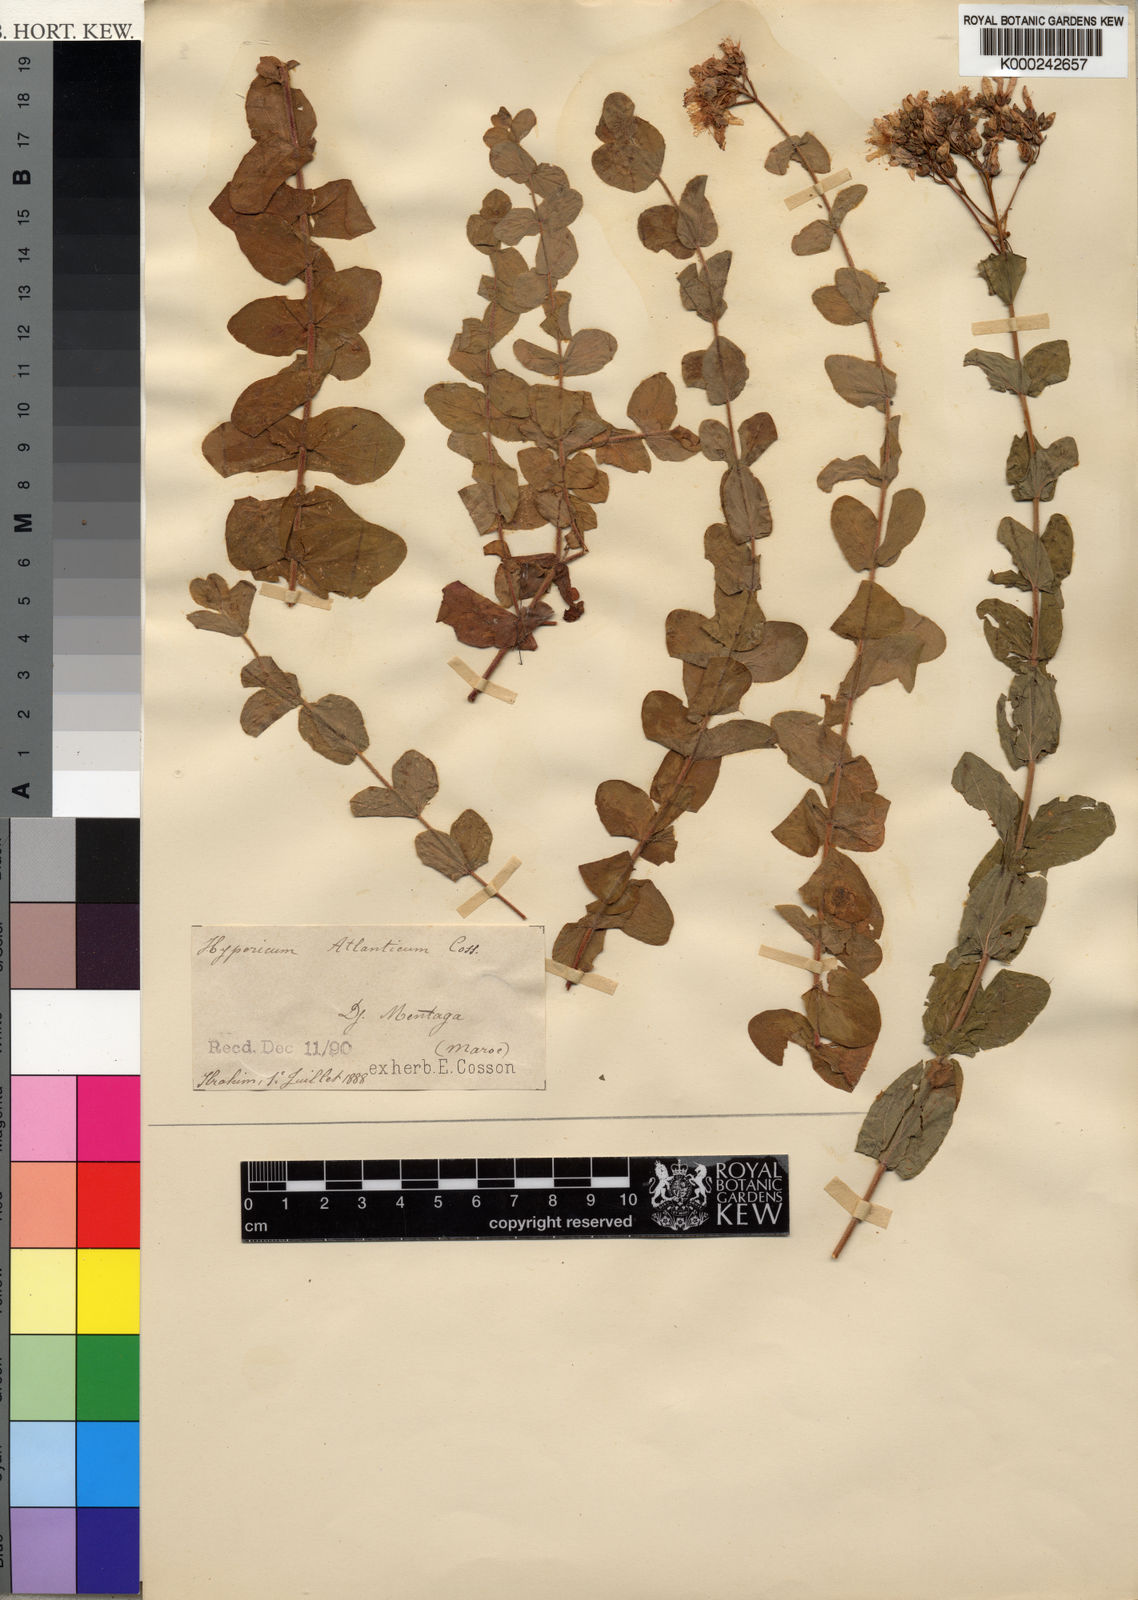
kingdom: Plantae
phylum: Tracheophyta
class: Magnoliopsida
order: Malpighiales
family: Hypericaceae
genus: Hypericum
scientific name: Hypericum
